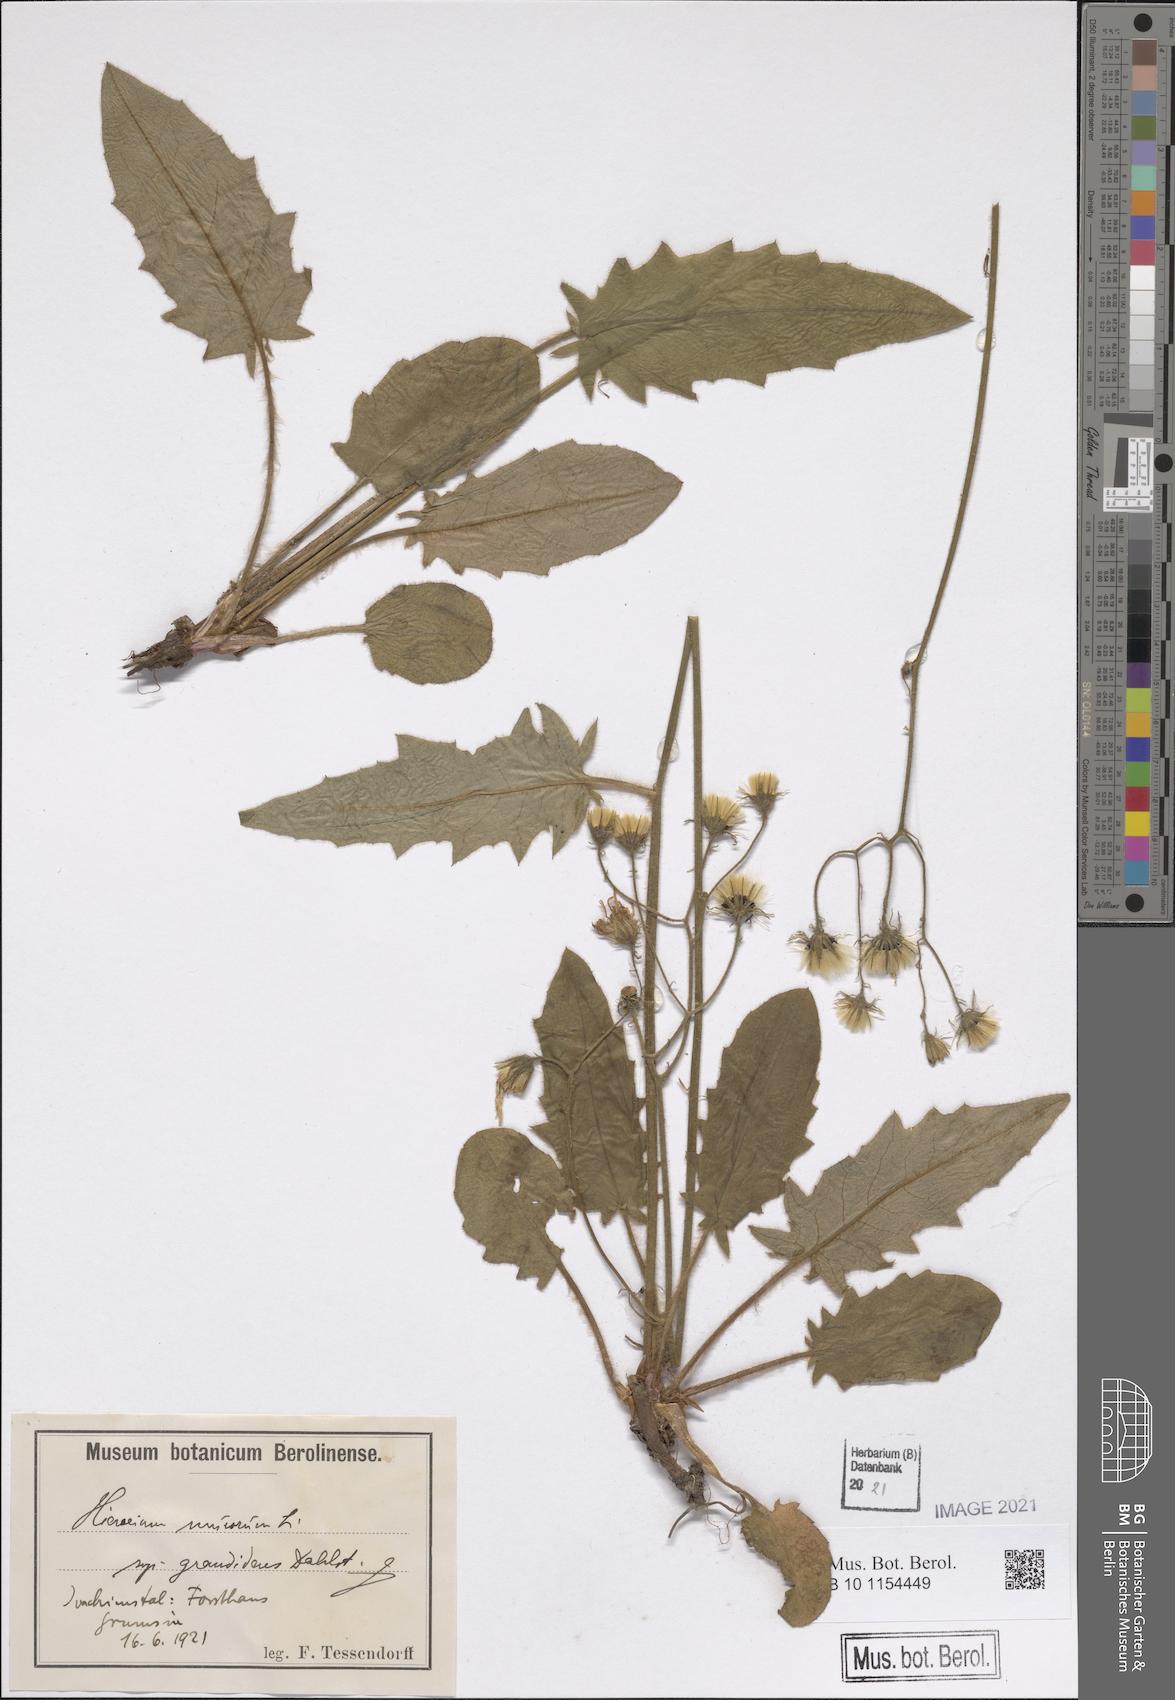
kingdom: Plantae
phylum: Tracheophyta
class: Magnoliopsida
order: Asterales
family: Asteraceae
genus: Hieracium
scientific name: Hieracium murorum
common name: Wall hawkweed
